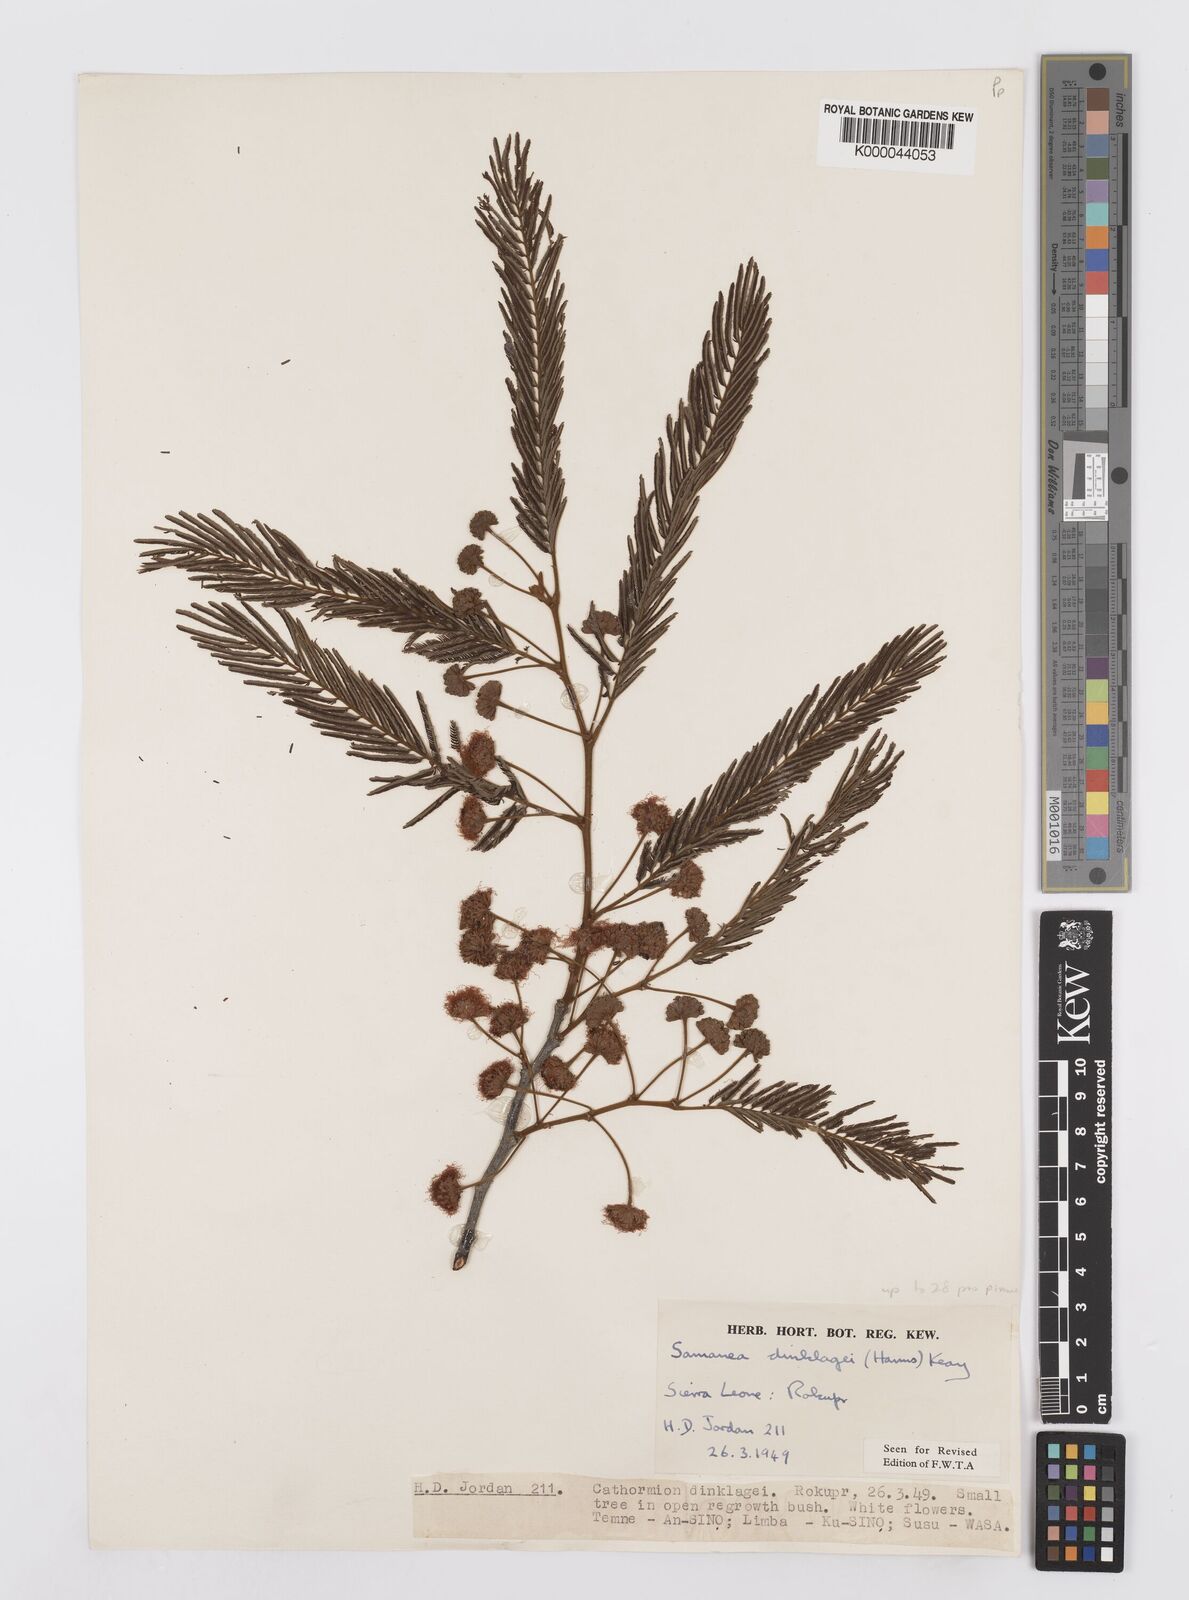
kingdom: Plantae
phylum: Tracheophyta
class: Magnoliopsida
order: Fabales
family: Fabaceae
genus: Albizia
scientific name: Albizia dinklagei
